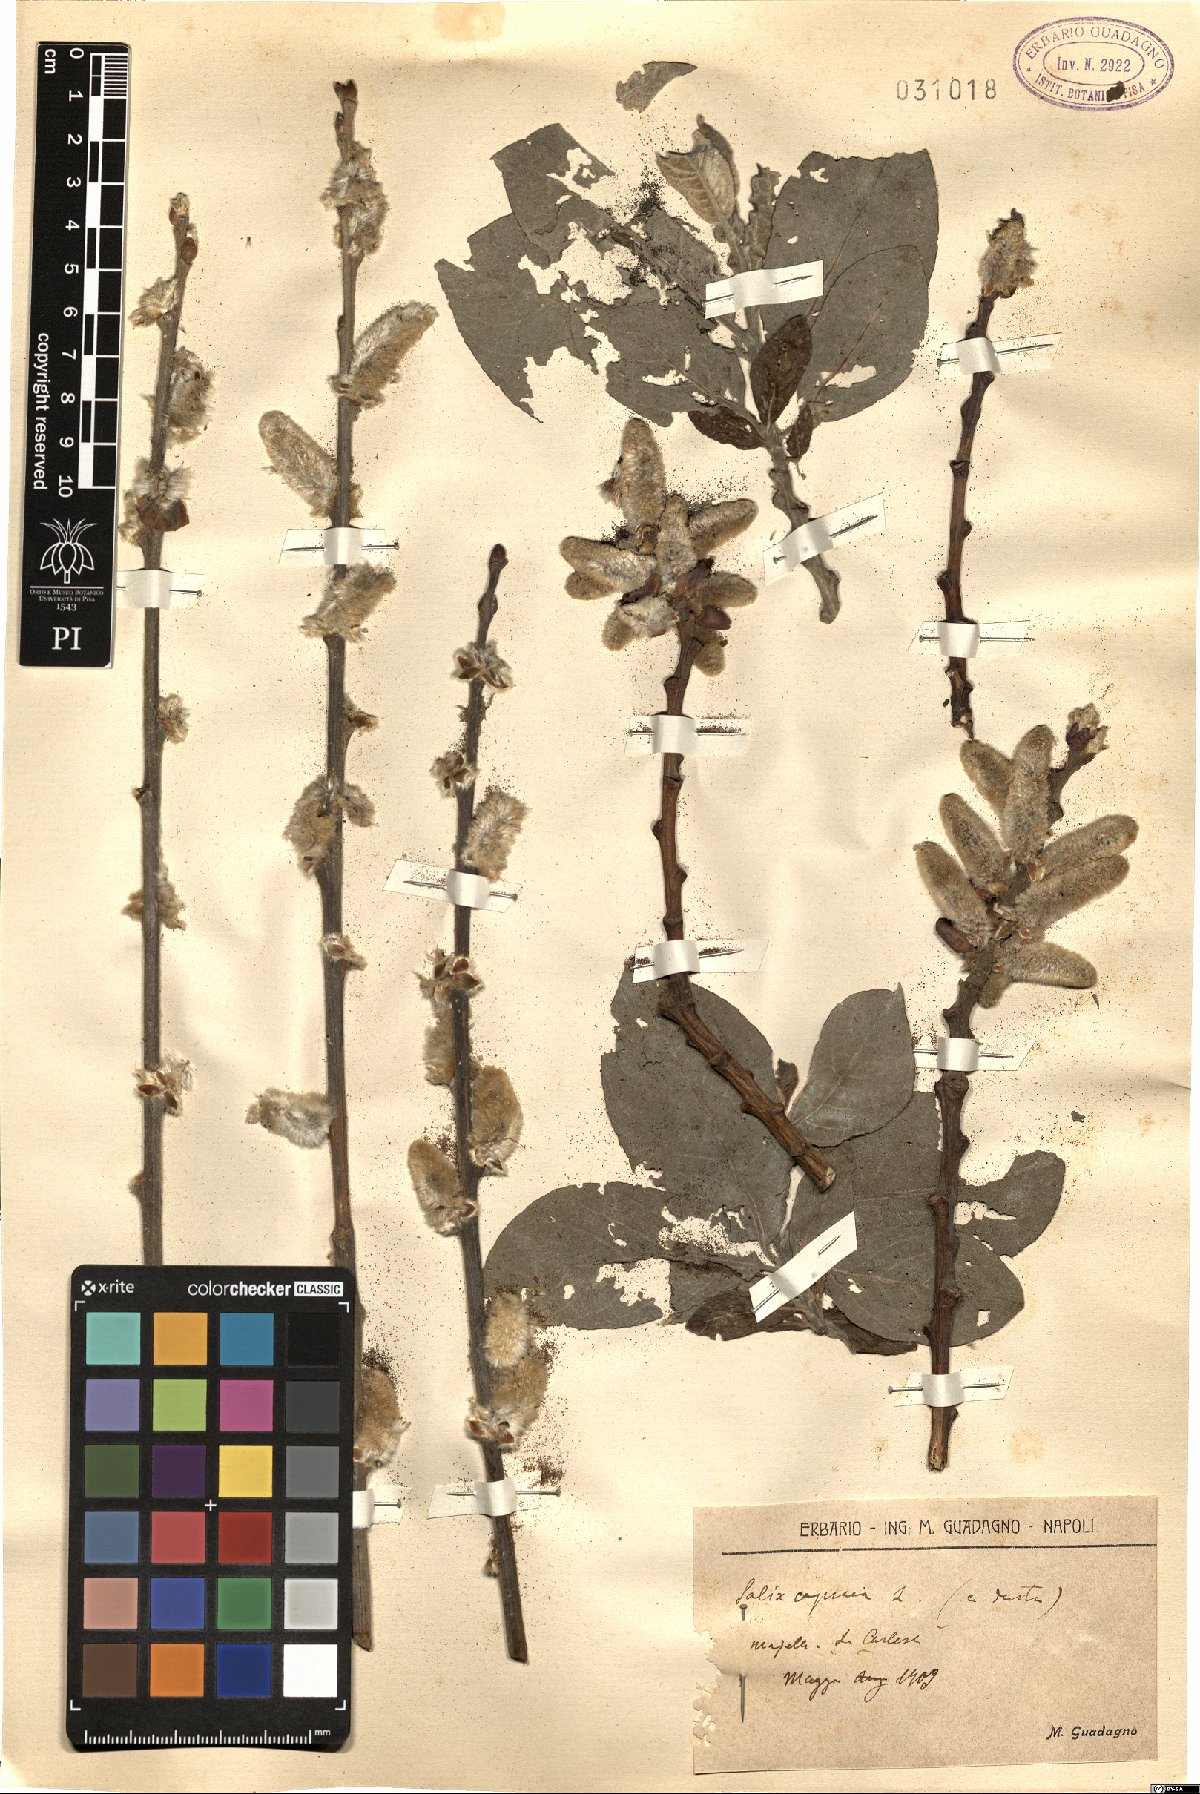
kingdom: Plantae
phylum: Tracheophyta
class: Magnoliopsida
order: Malpighiales
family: Salicaceae
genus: Salix
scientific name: Salix caprea
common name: Goat willow
